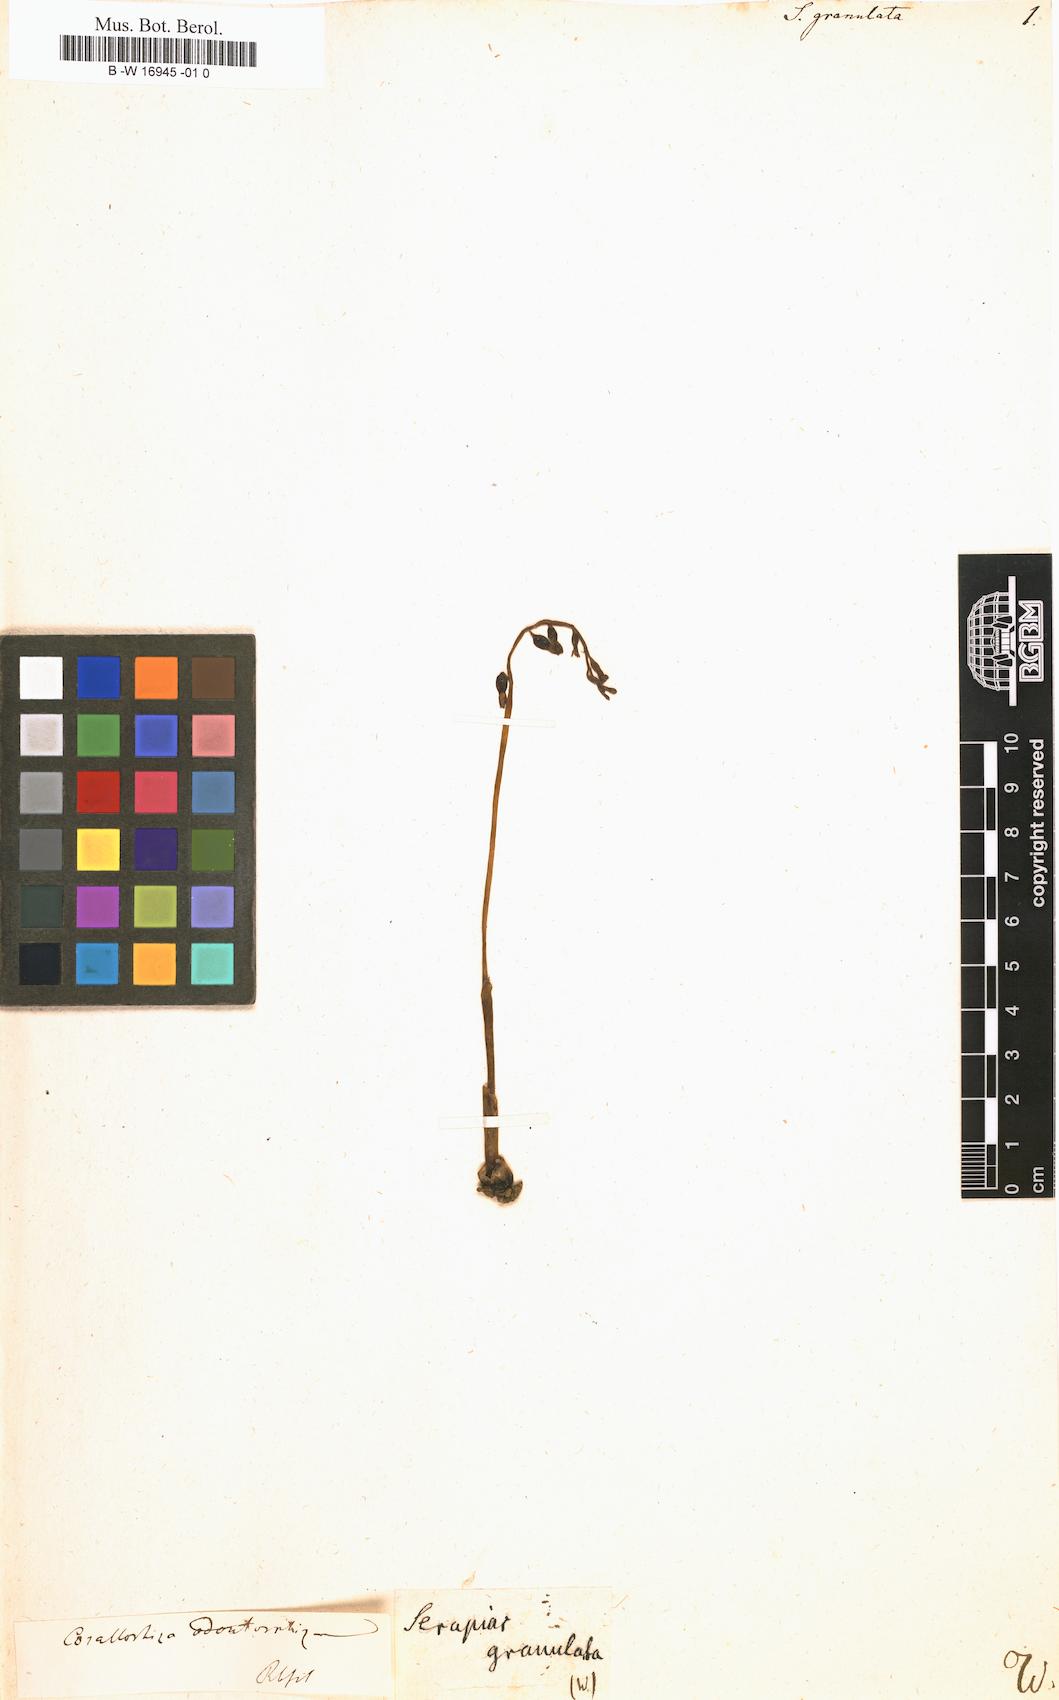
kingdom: Plantae
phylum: Tracheophyta
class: Liliopsida
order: Asparagales
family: Orchidaceae
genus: Serapias
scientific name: Serapias
